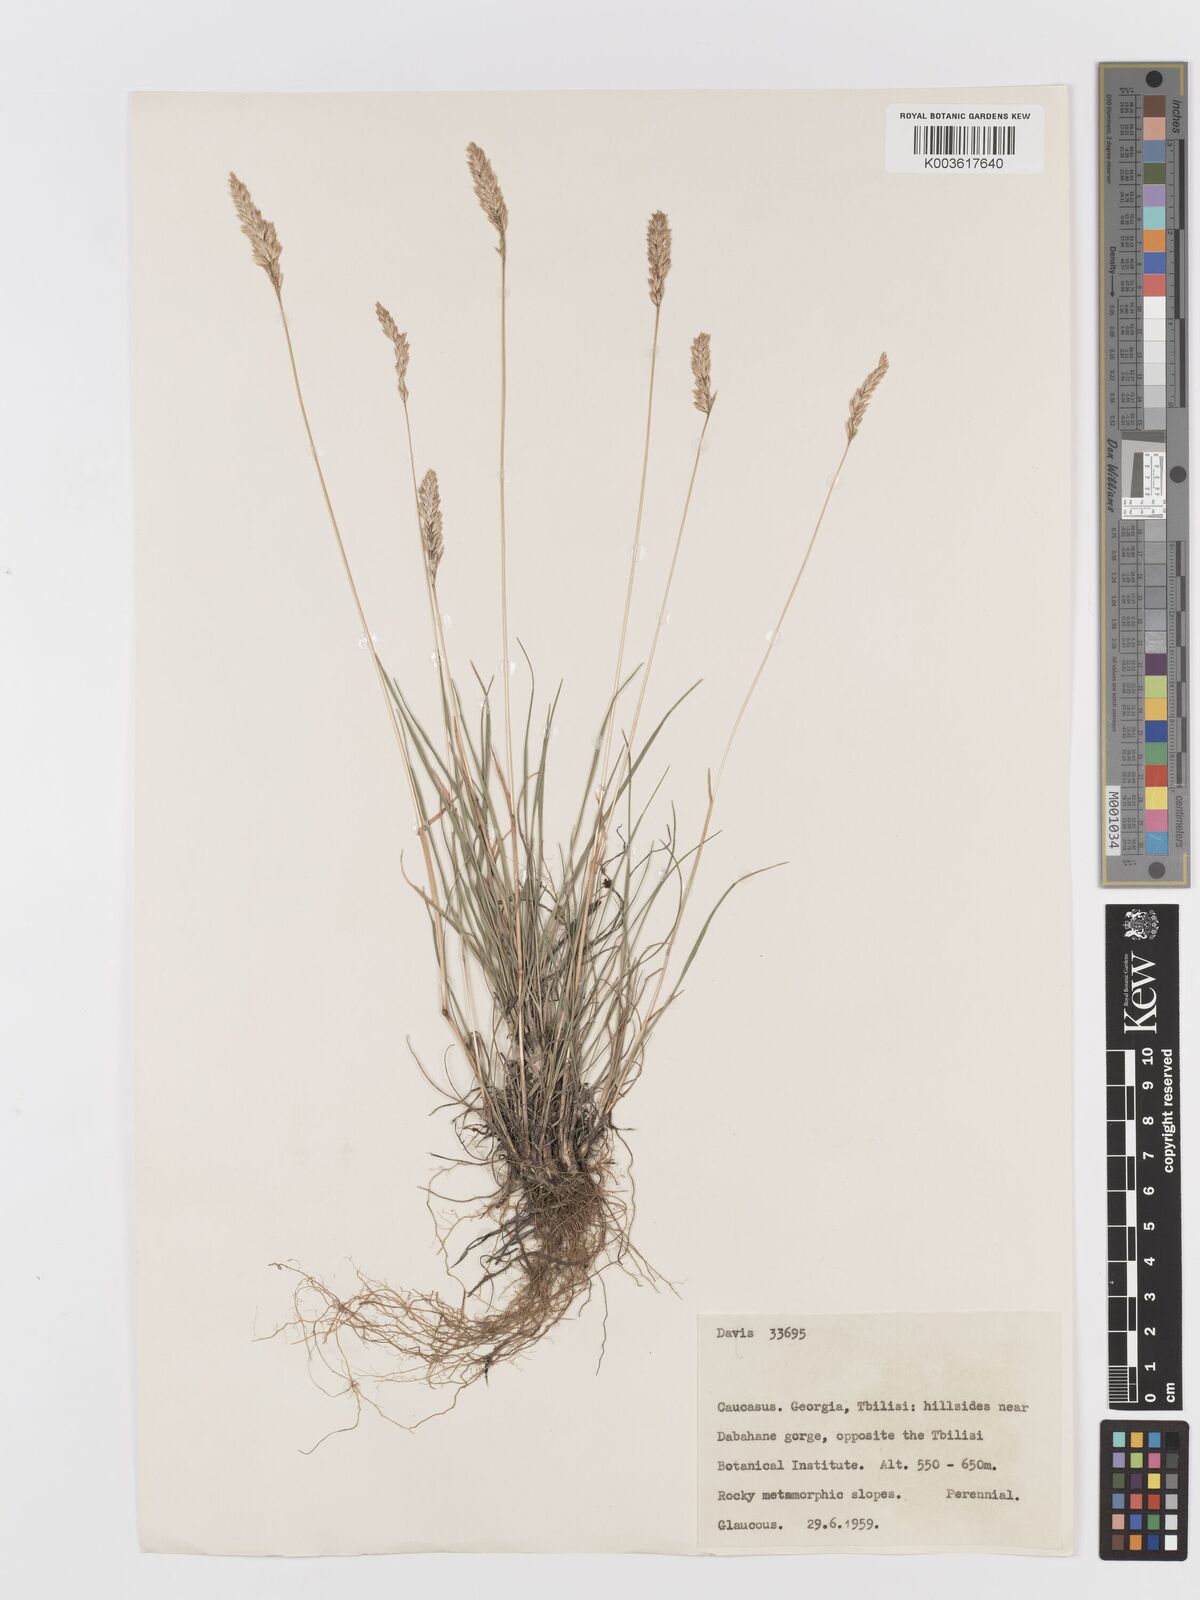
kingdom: Plantae
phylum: Tracheophyta
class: Liliopsida
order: Poales
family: Poaceae
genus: Koeleria
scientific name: Koeleria
